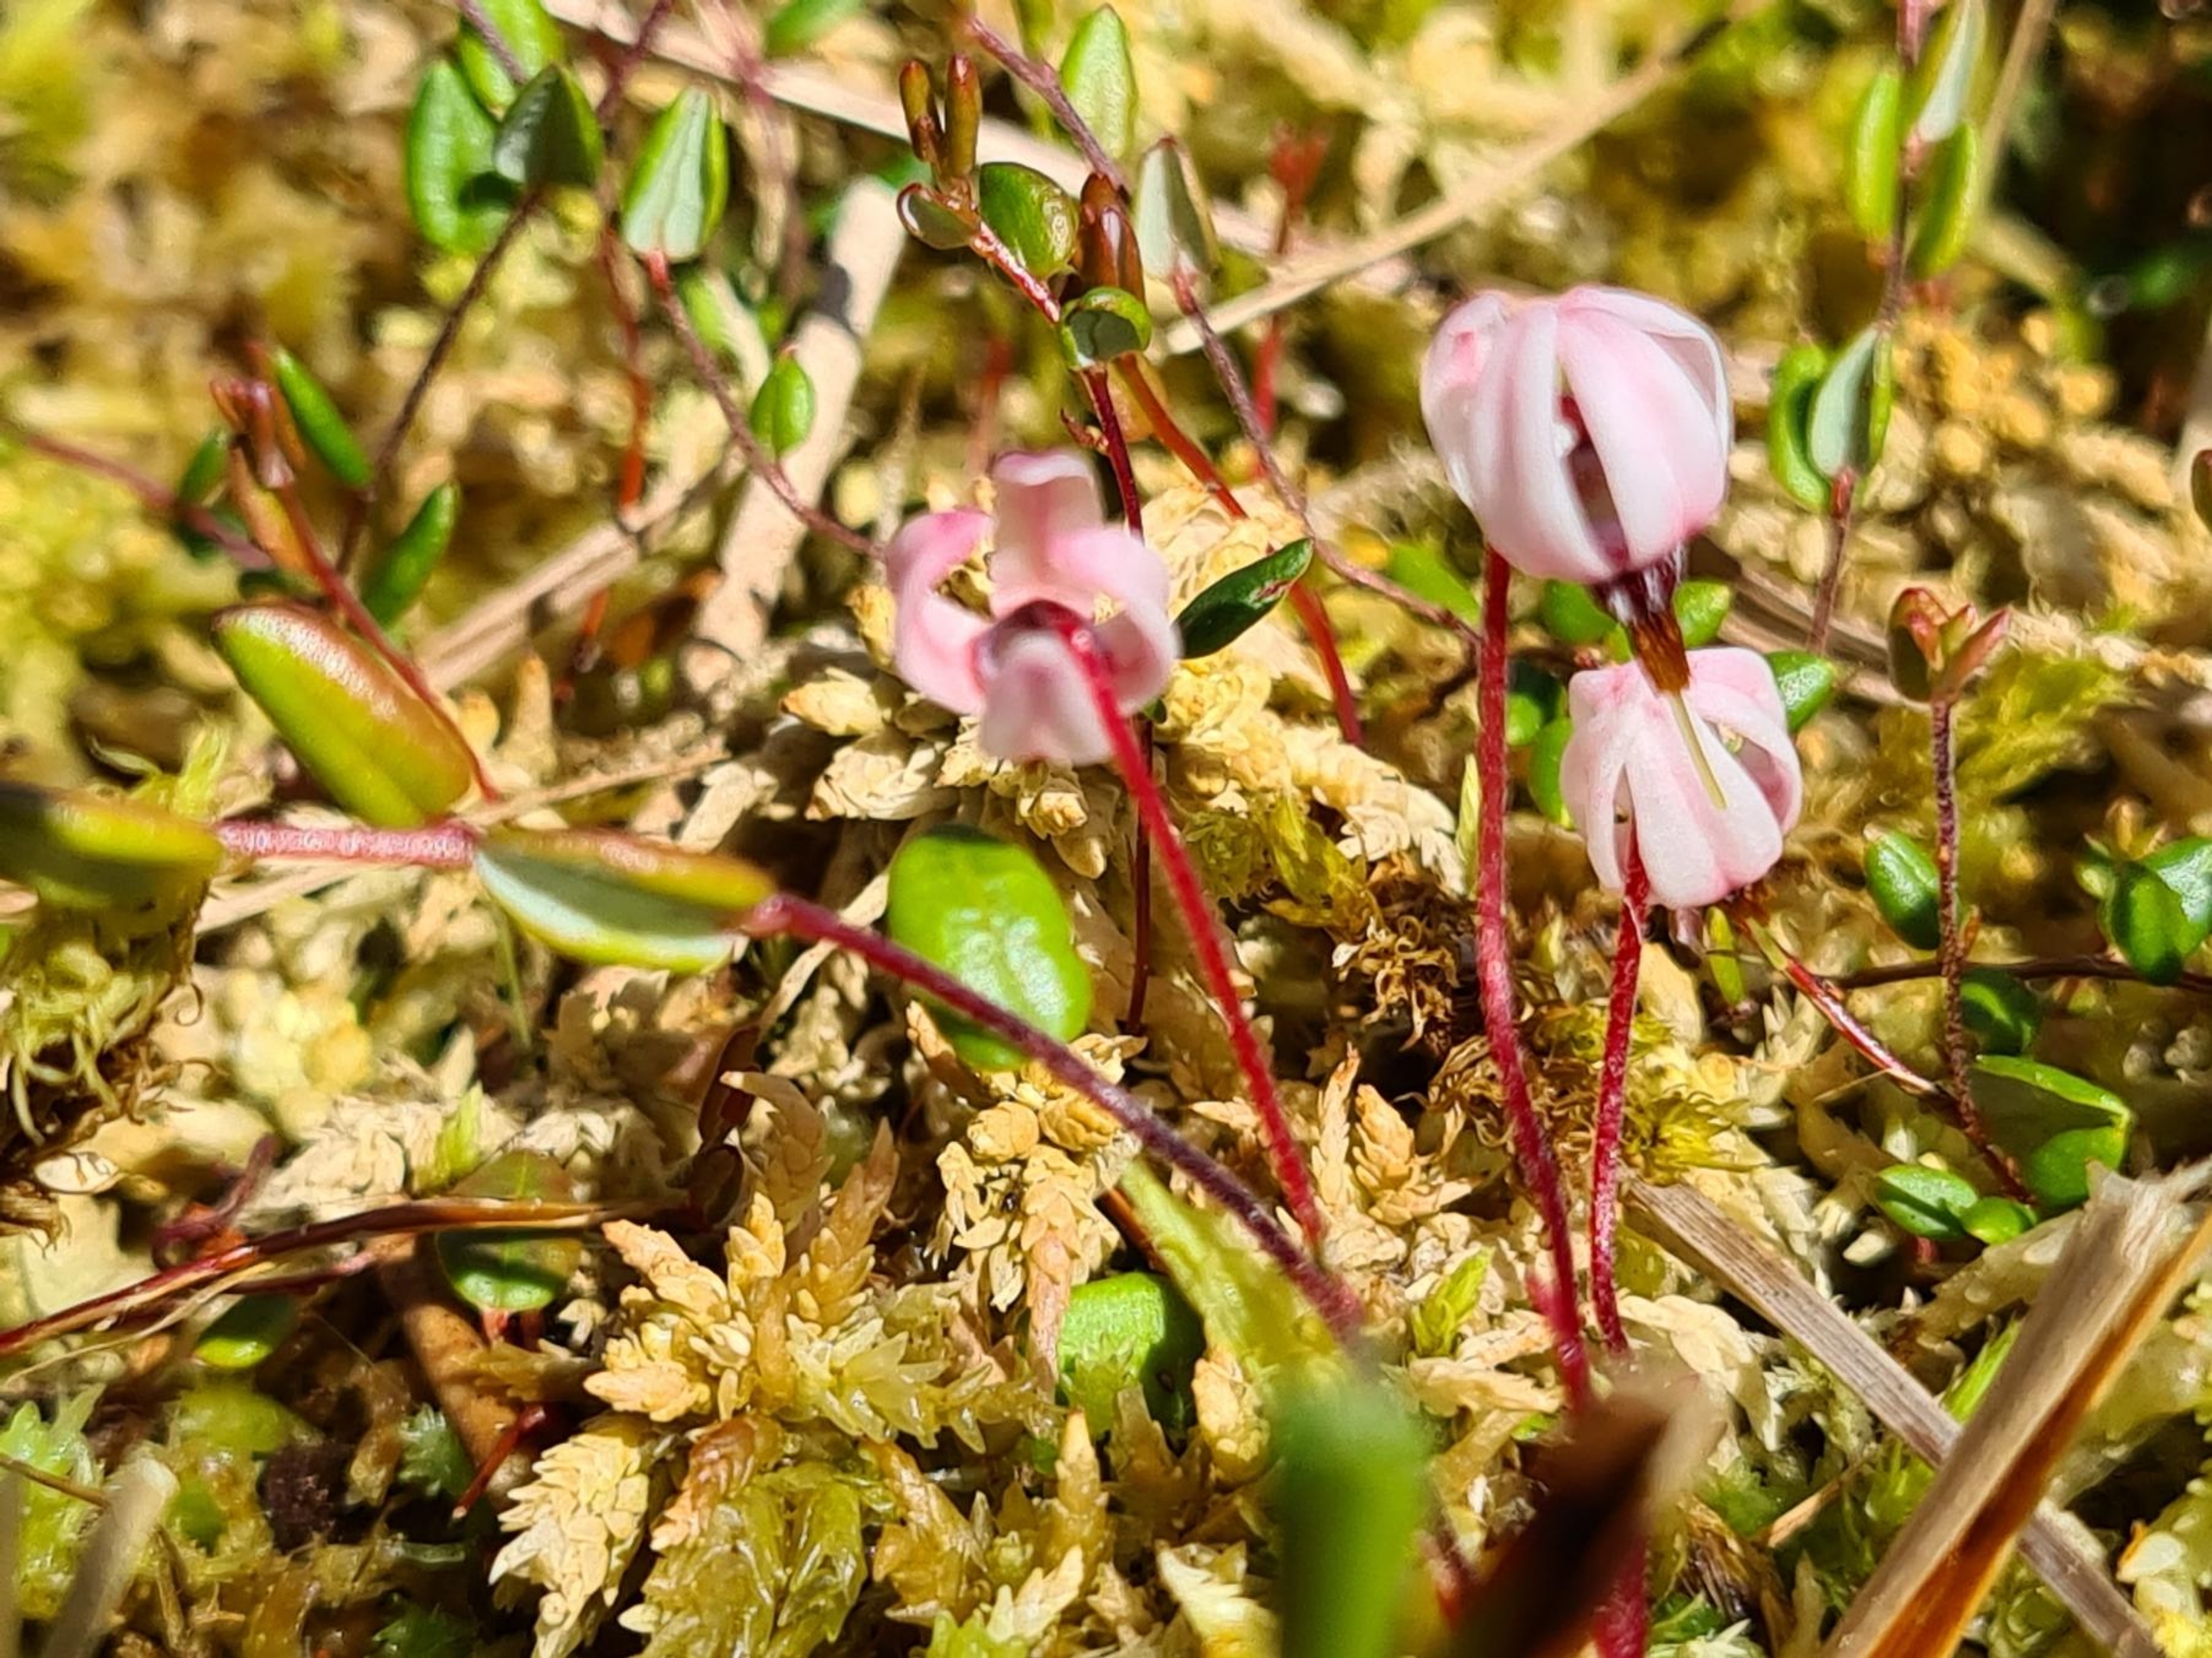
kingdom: Plantae
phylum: Tracheophyta
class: Magnoliopsida
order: Ericales
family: Ericaceae
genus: Vaccinium
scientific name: Vaccinium oxycoccos
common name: Tranebær
